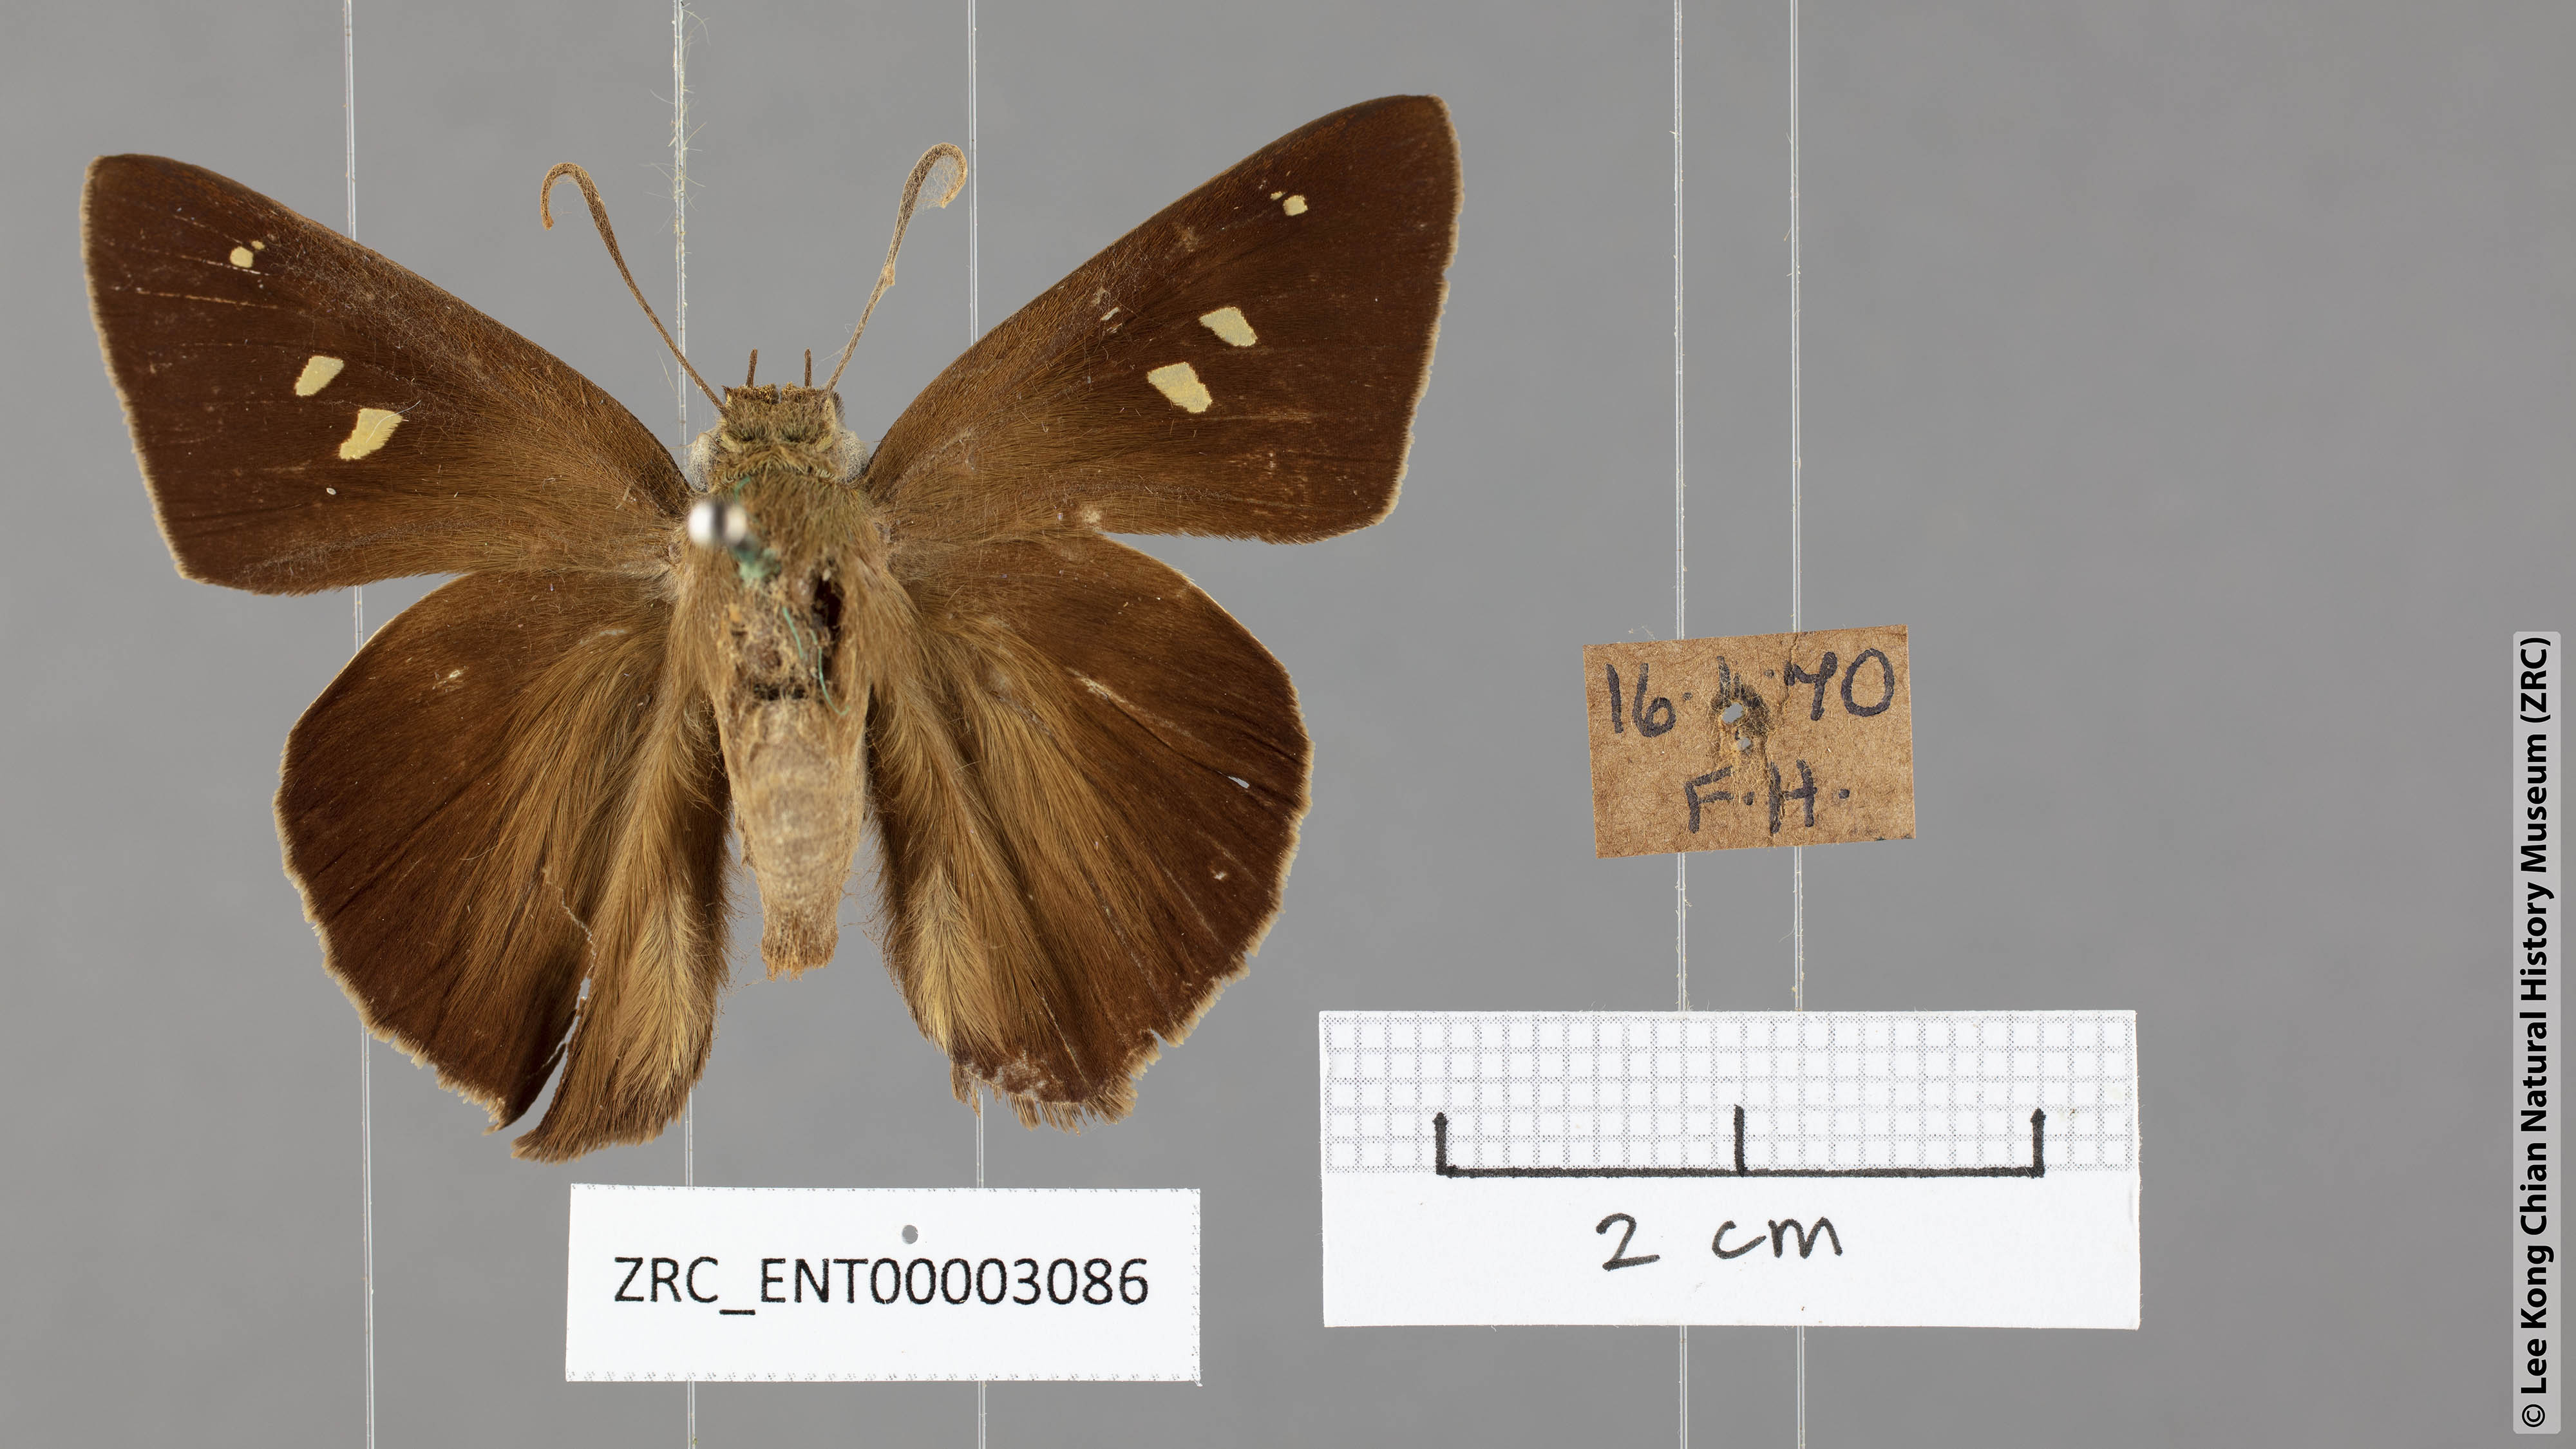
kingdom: Animalia
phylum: Arthropoda
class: Insecta
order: Lepidoptera
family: Hesperiidae
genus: Hasora
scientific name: Hasora vitta
